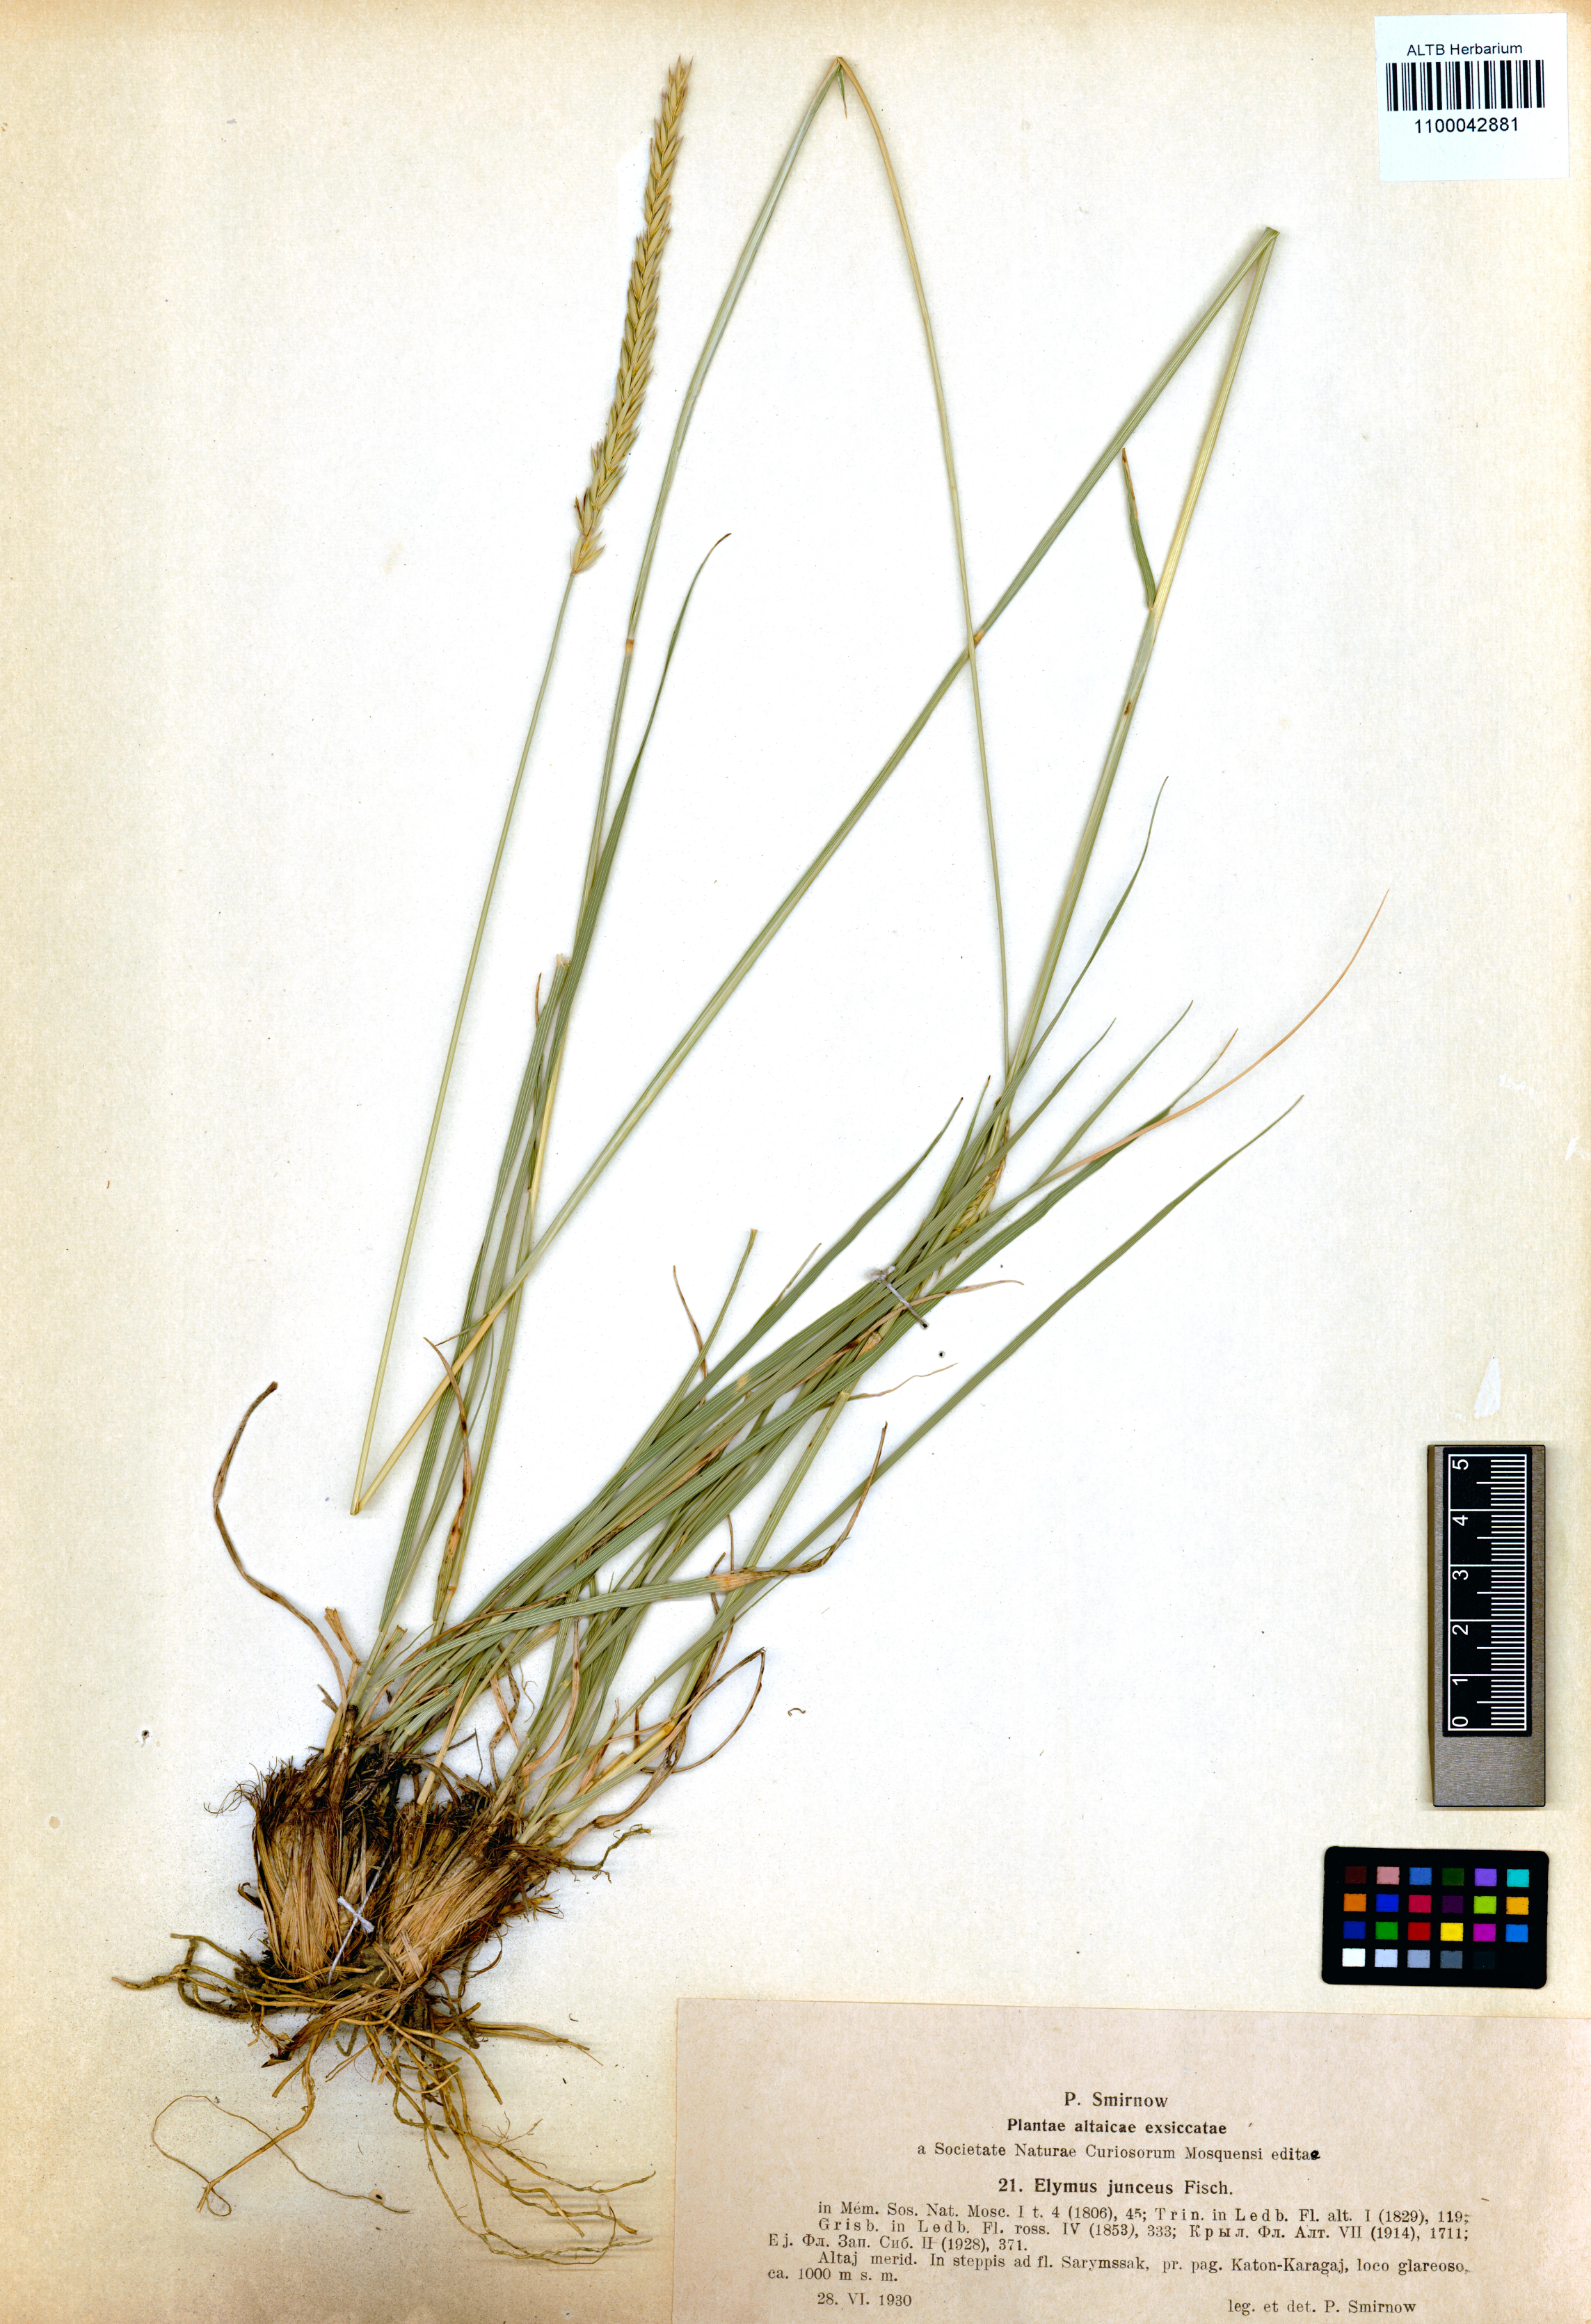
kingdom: Plantae
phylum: Tracheophyta
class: Liliopsida
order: Poales
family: Poaceae
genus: Psathyrostachys
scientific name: Psathyrostachys juncea
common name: Russian wildrye
